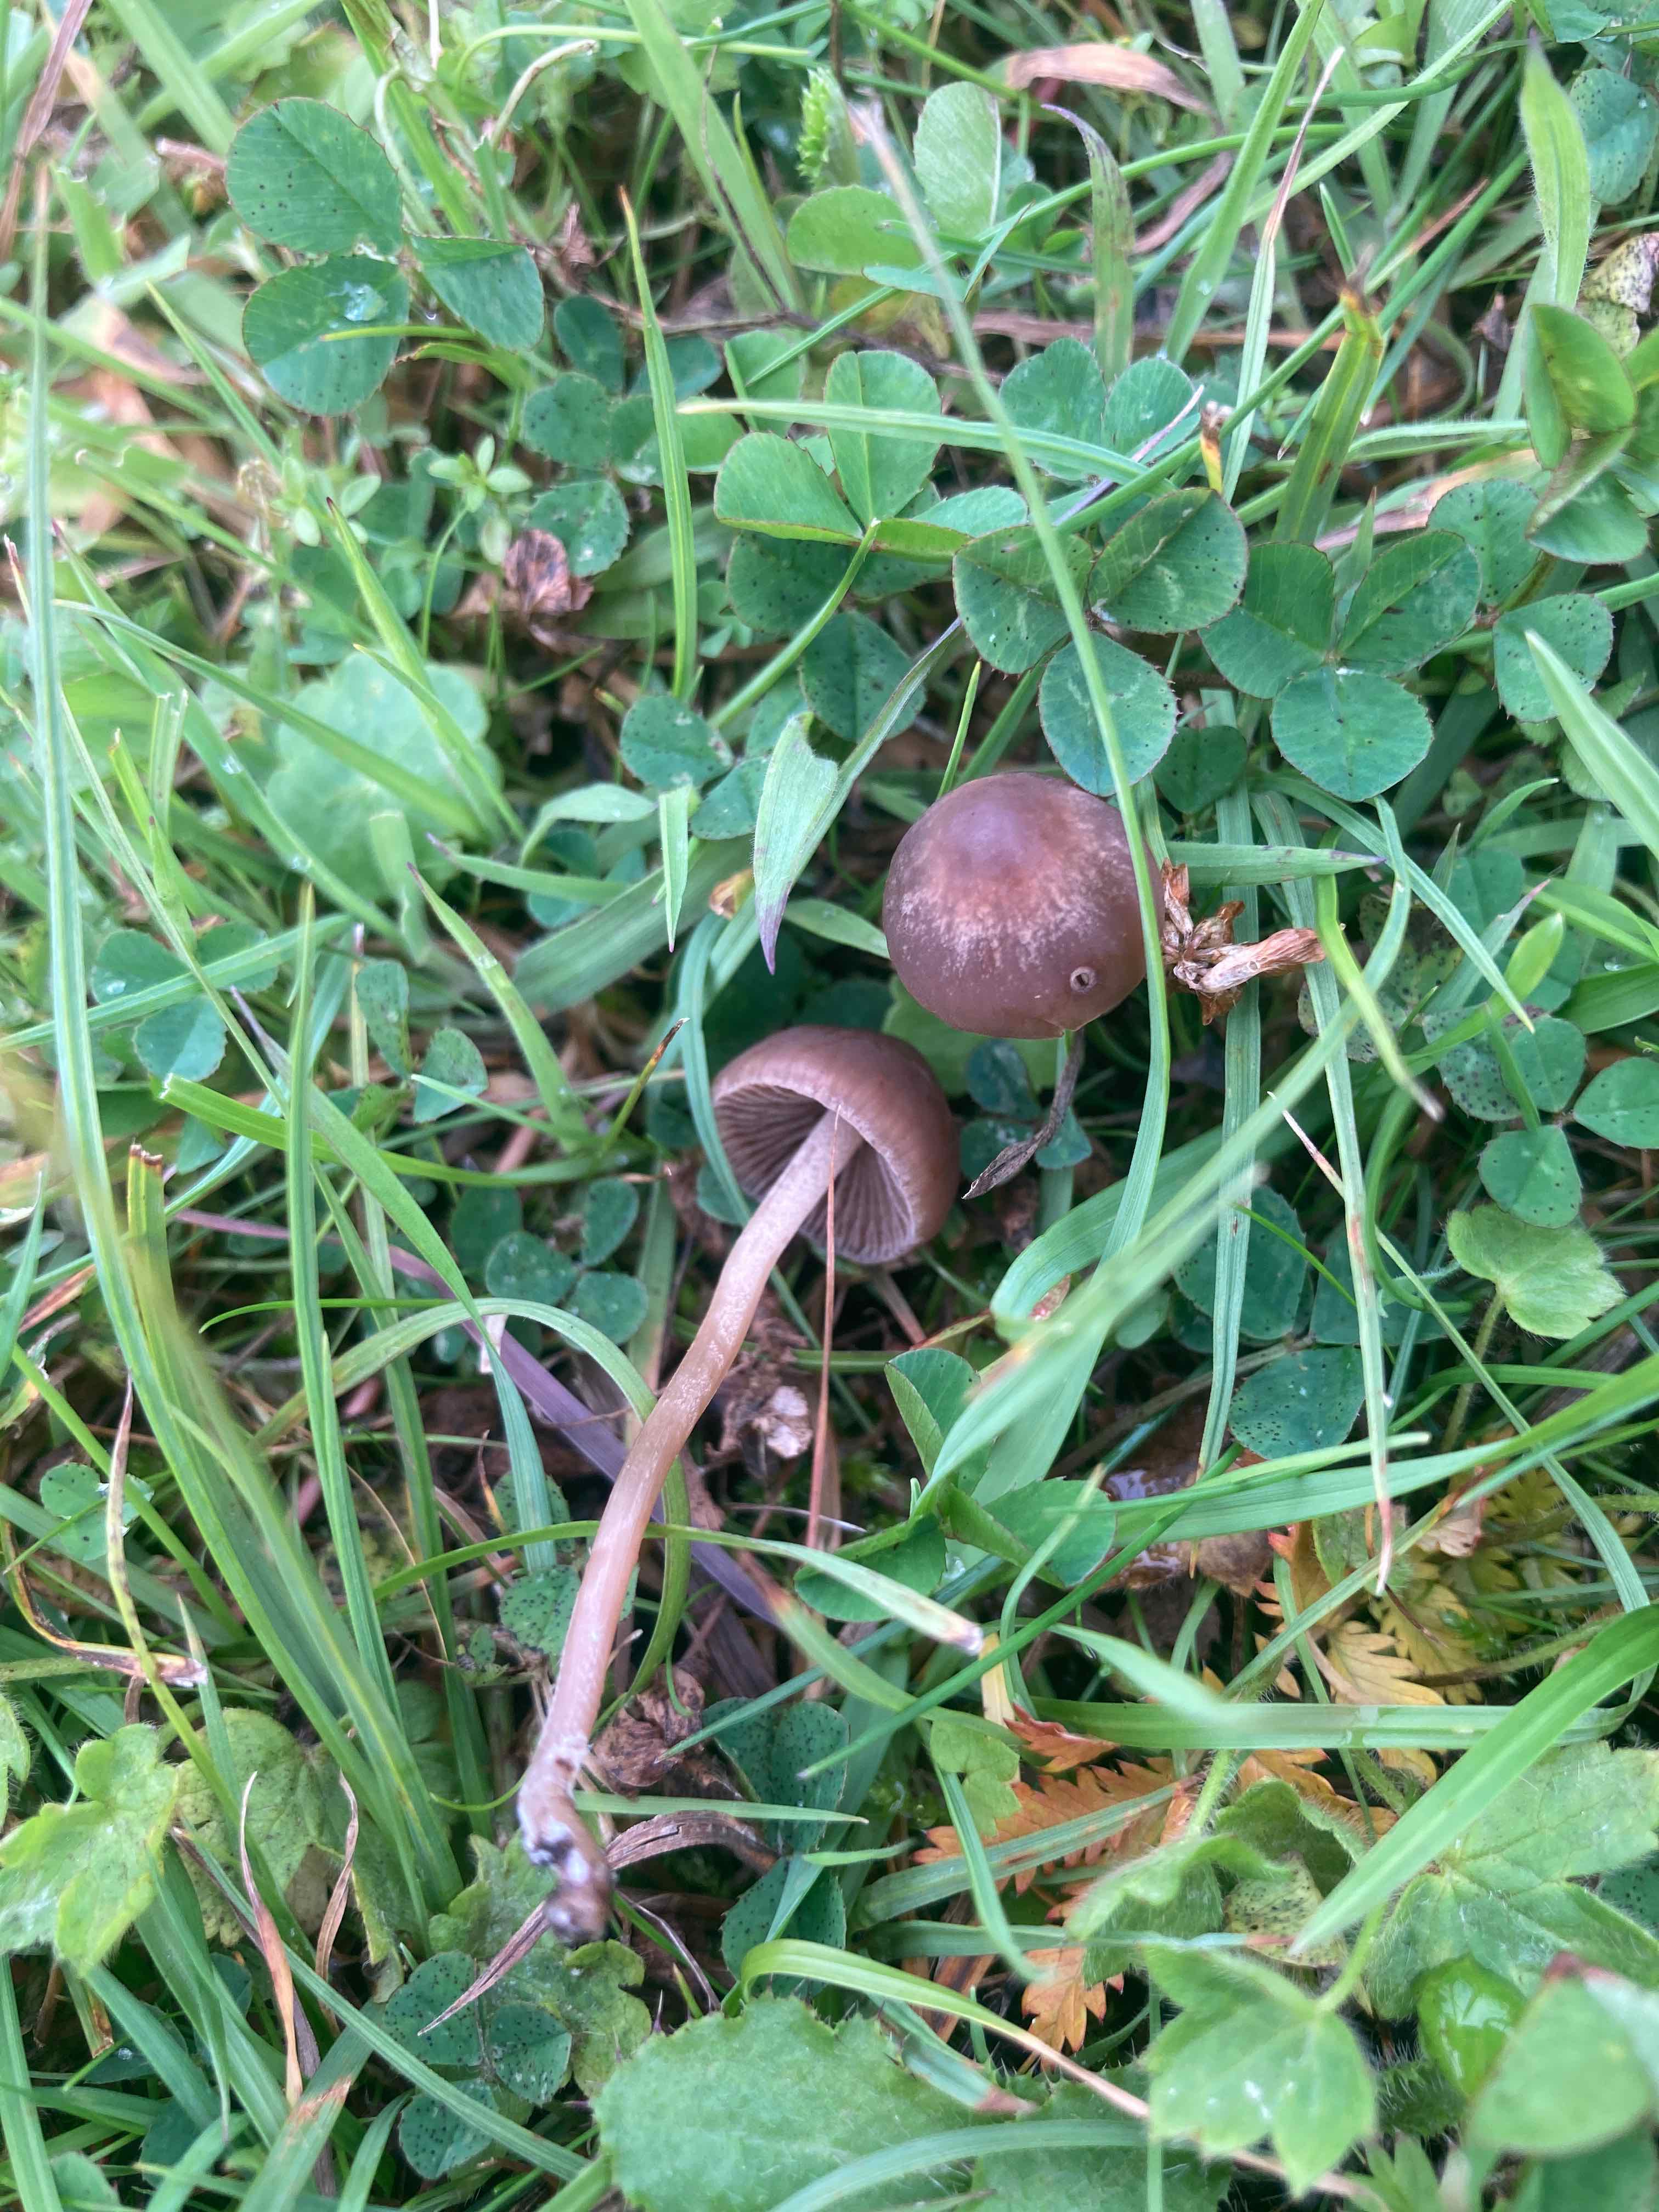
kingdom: Fungi
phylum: Basidiomycota
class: Agaricomycetes
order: Agaricales
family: Bolbitiaceae
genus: Panaeolina
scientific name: Panaeolina foenisecii
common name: høslætsvamp
